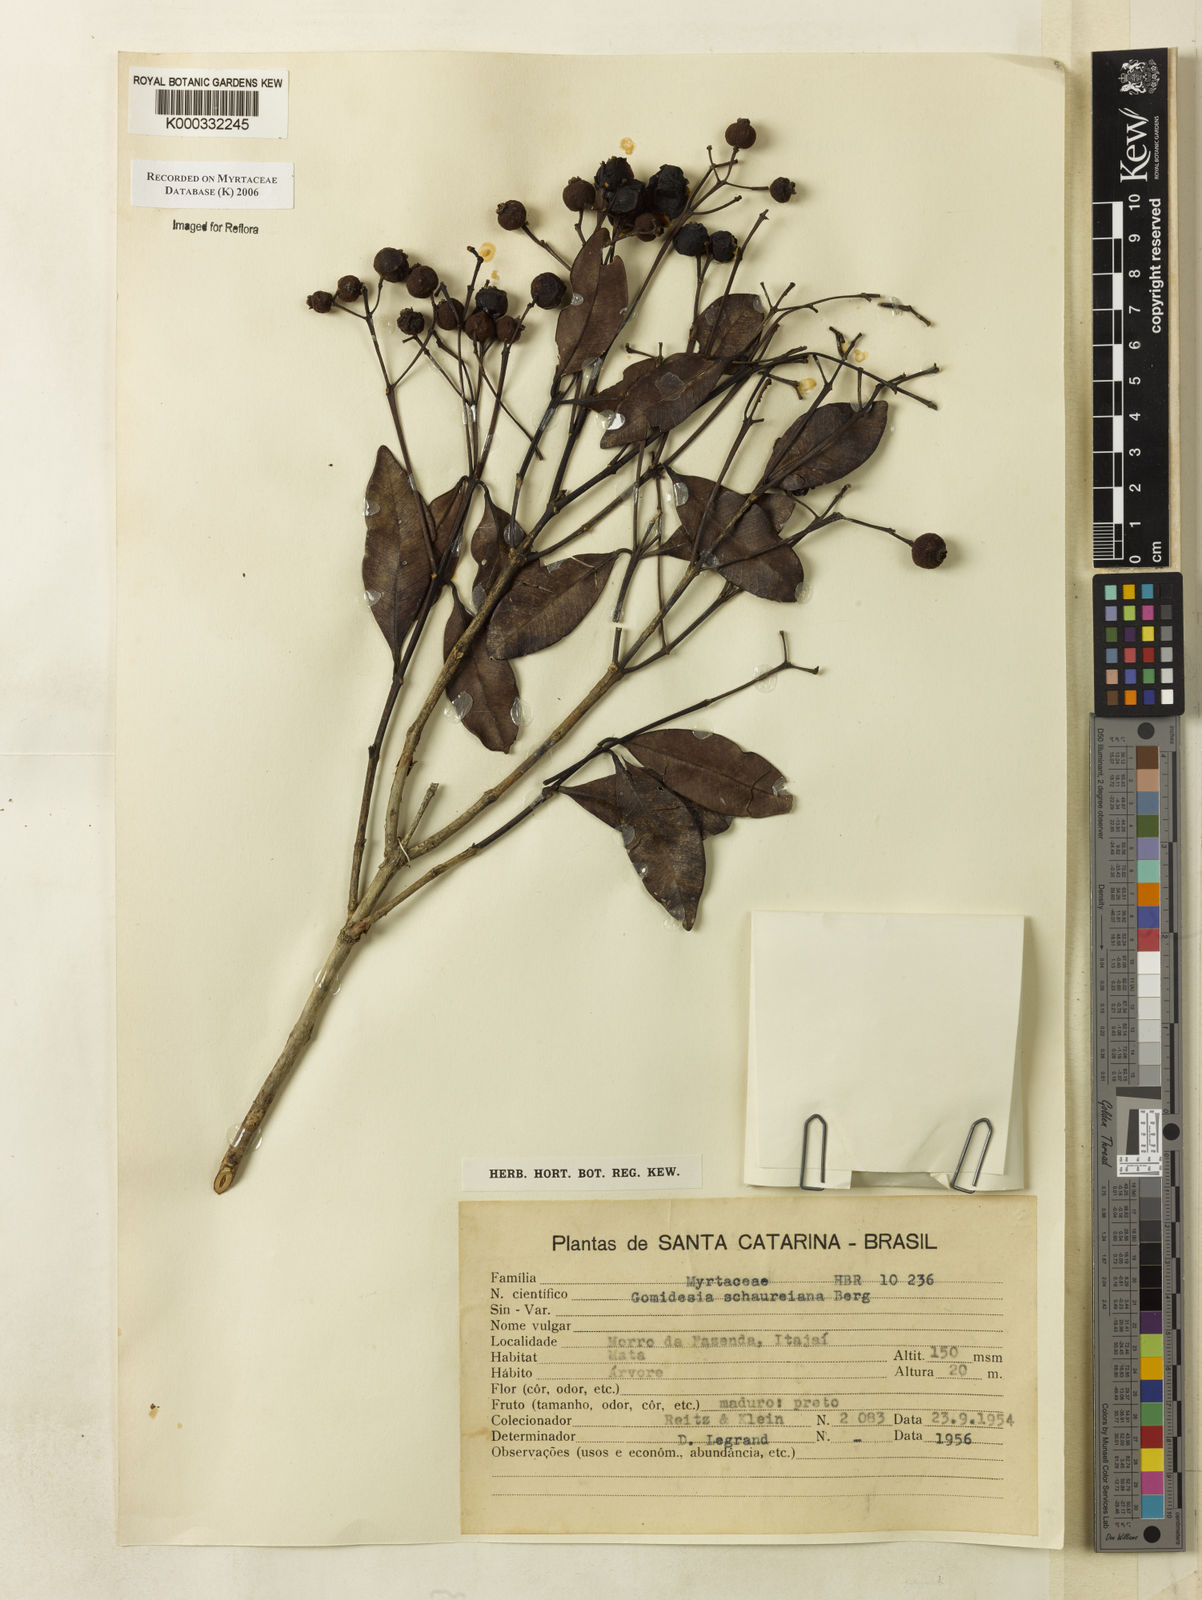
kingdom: Plantae
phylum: Tracheophyta
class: Magnoliopsida
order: Myrtales
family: Myrtaceae
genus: Myrcia
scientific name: Myrcia freyreissiana
